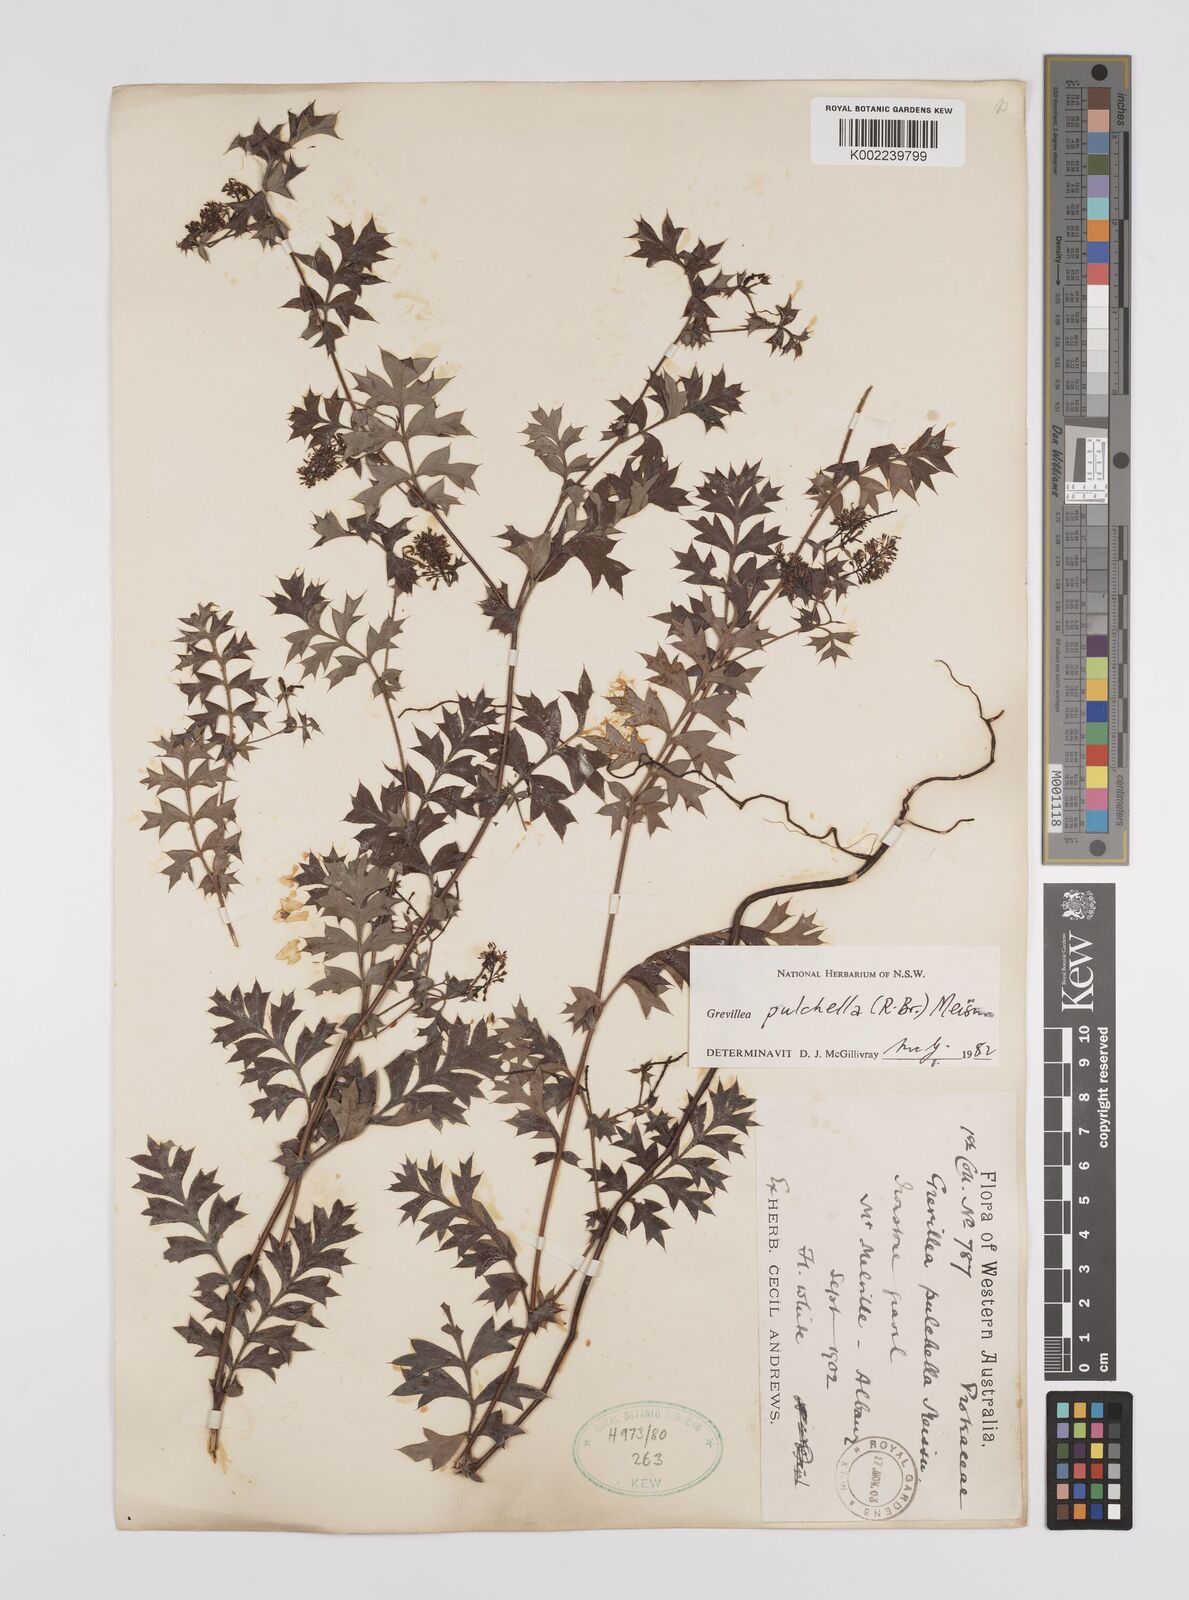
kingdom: Plantae
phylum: Tracheophyta
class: Magnoliopsida
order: Proteales
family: Proteaceae
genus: Grevillea
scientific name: Grevillea pulchella
